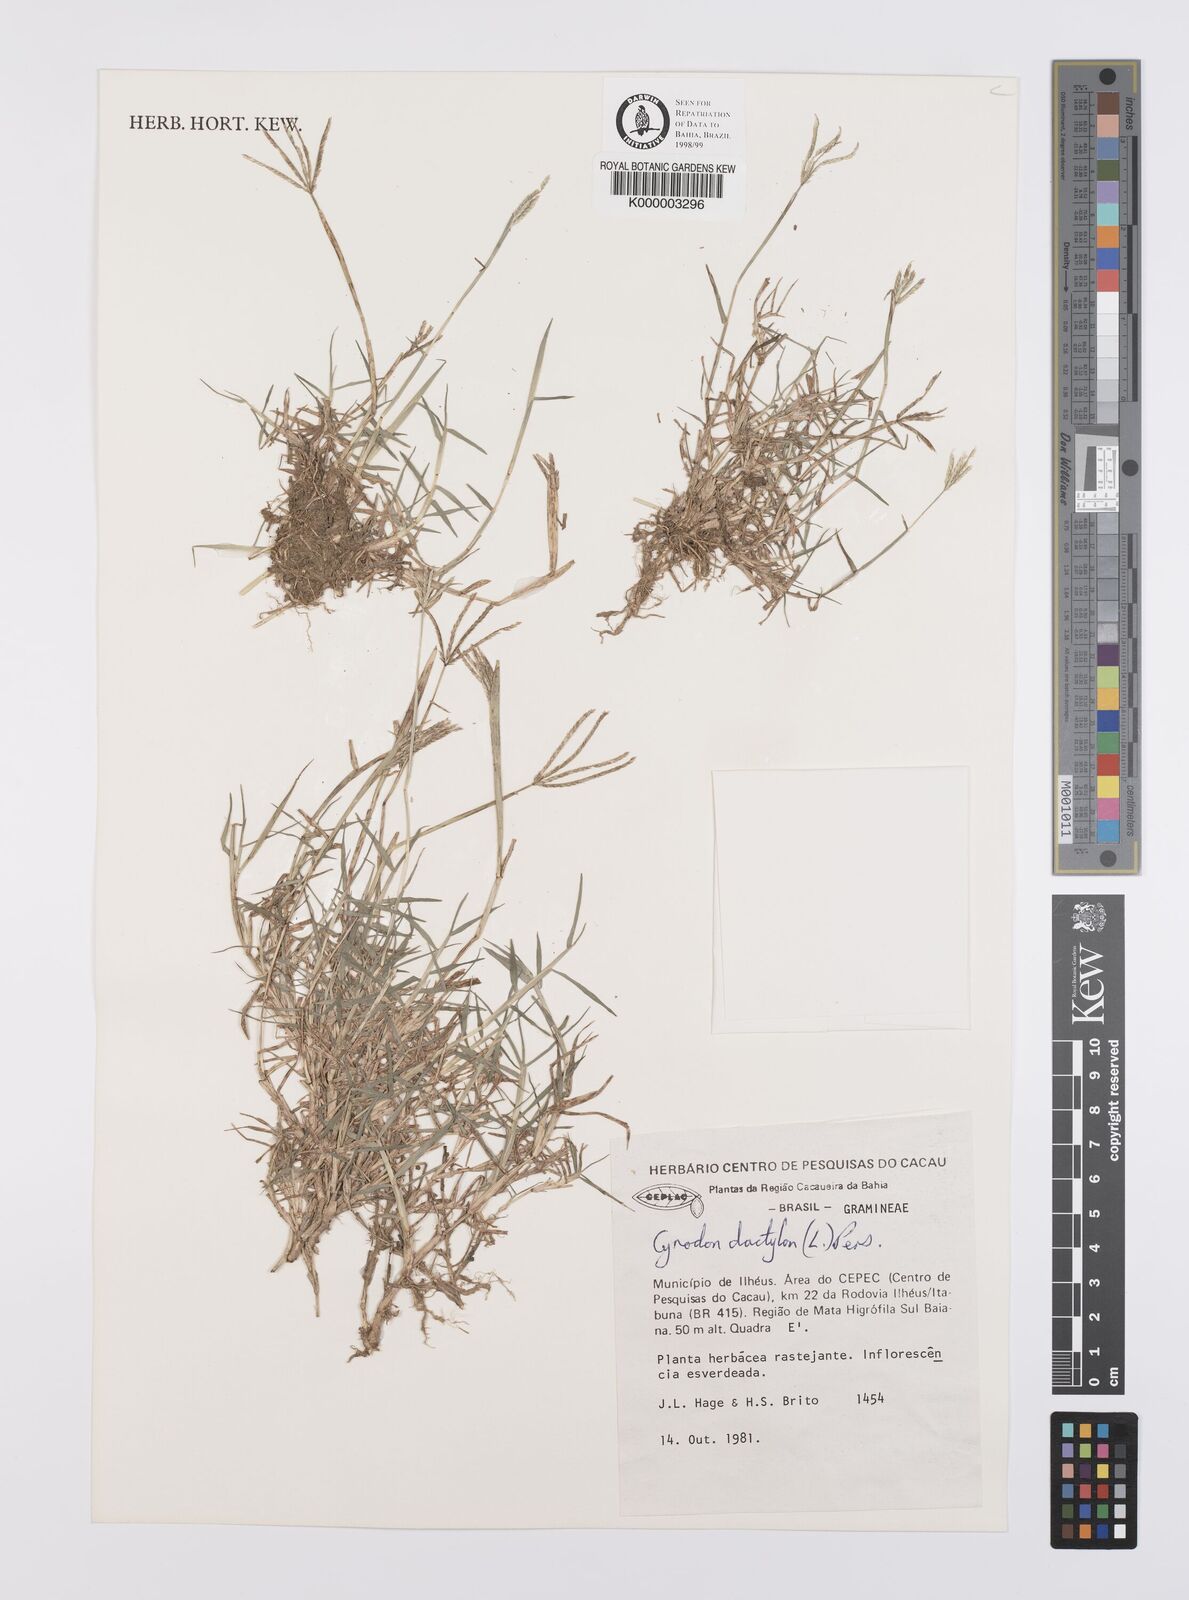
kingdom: Plantae
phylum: Tracheophyta
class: Liliopsida
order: Poales
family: Poaceae
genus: Cynodon
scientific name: Cynodon dactylon
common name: Bermuda grass
